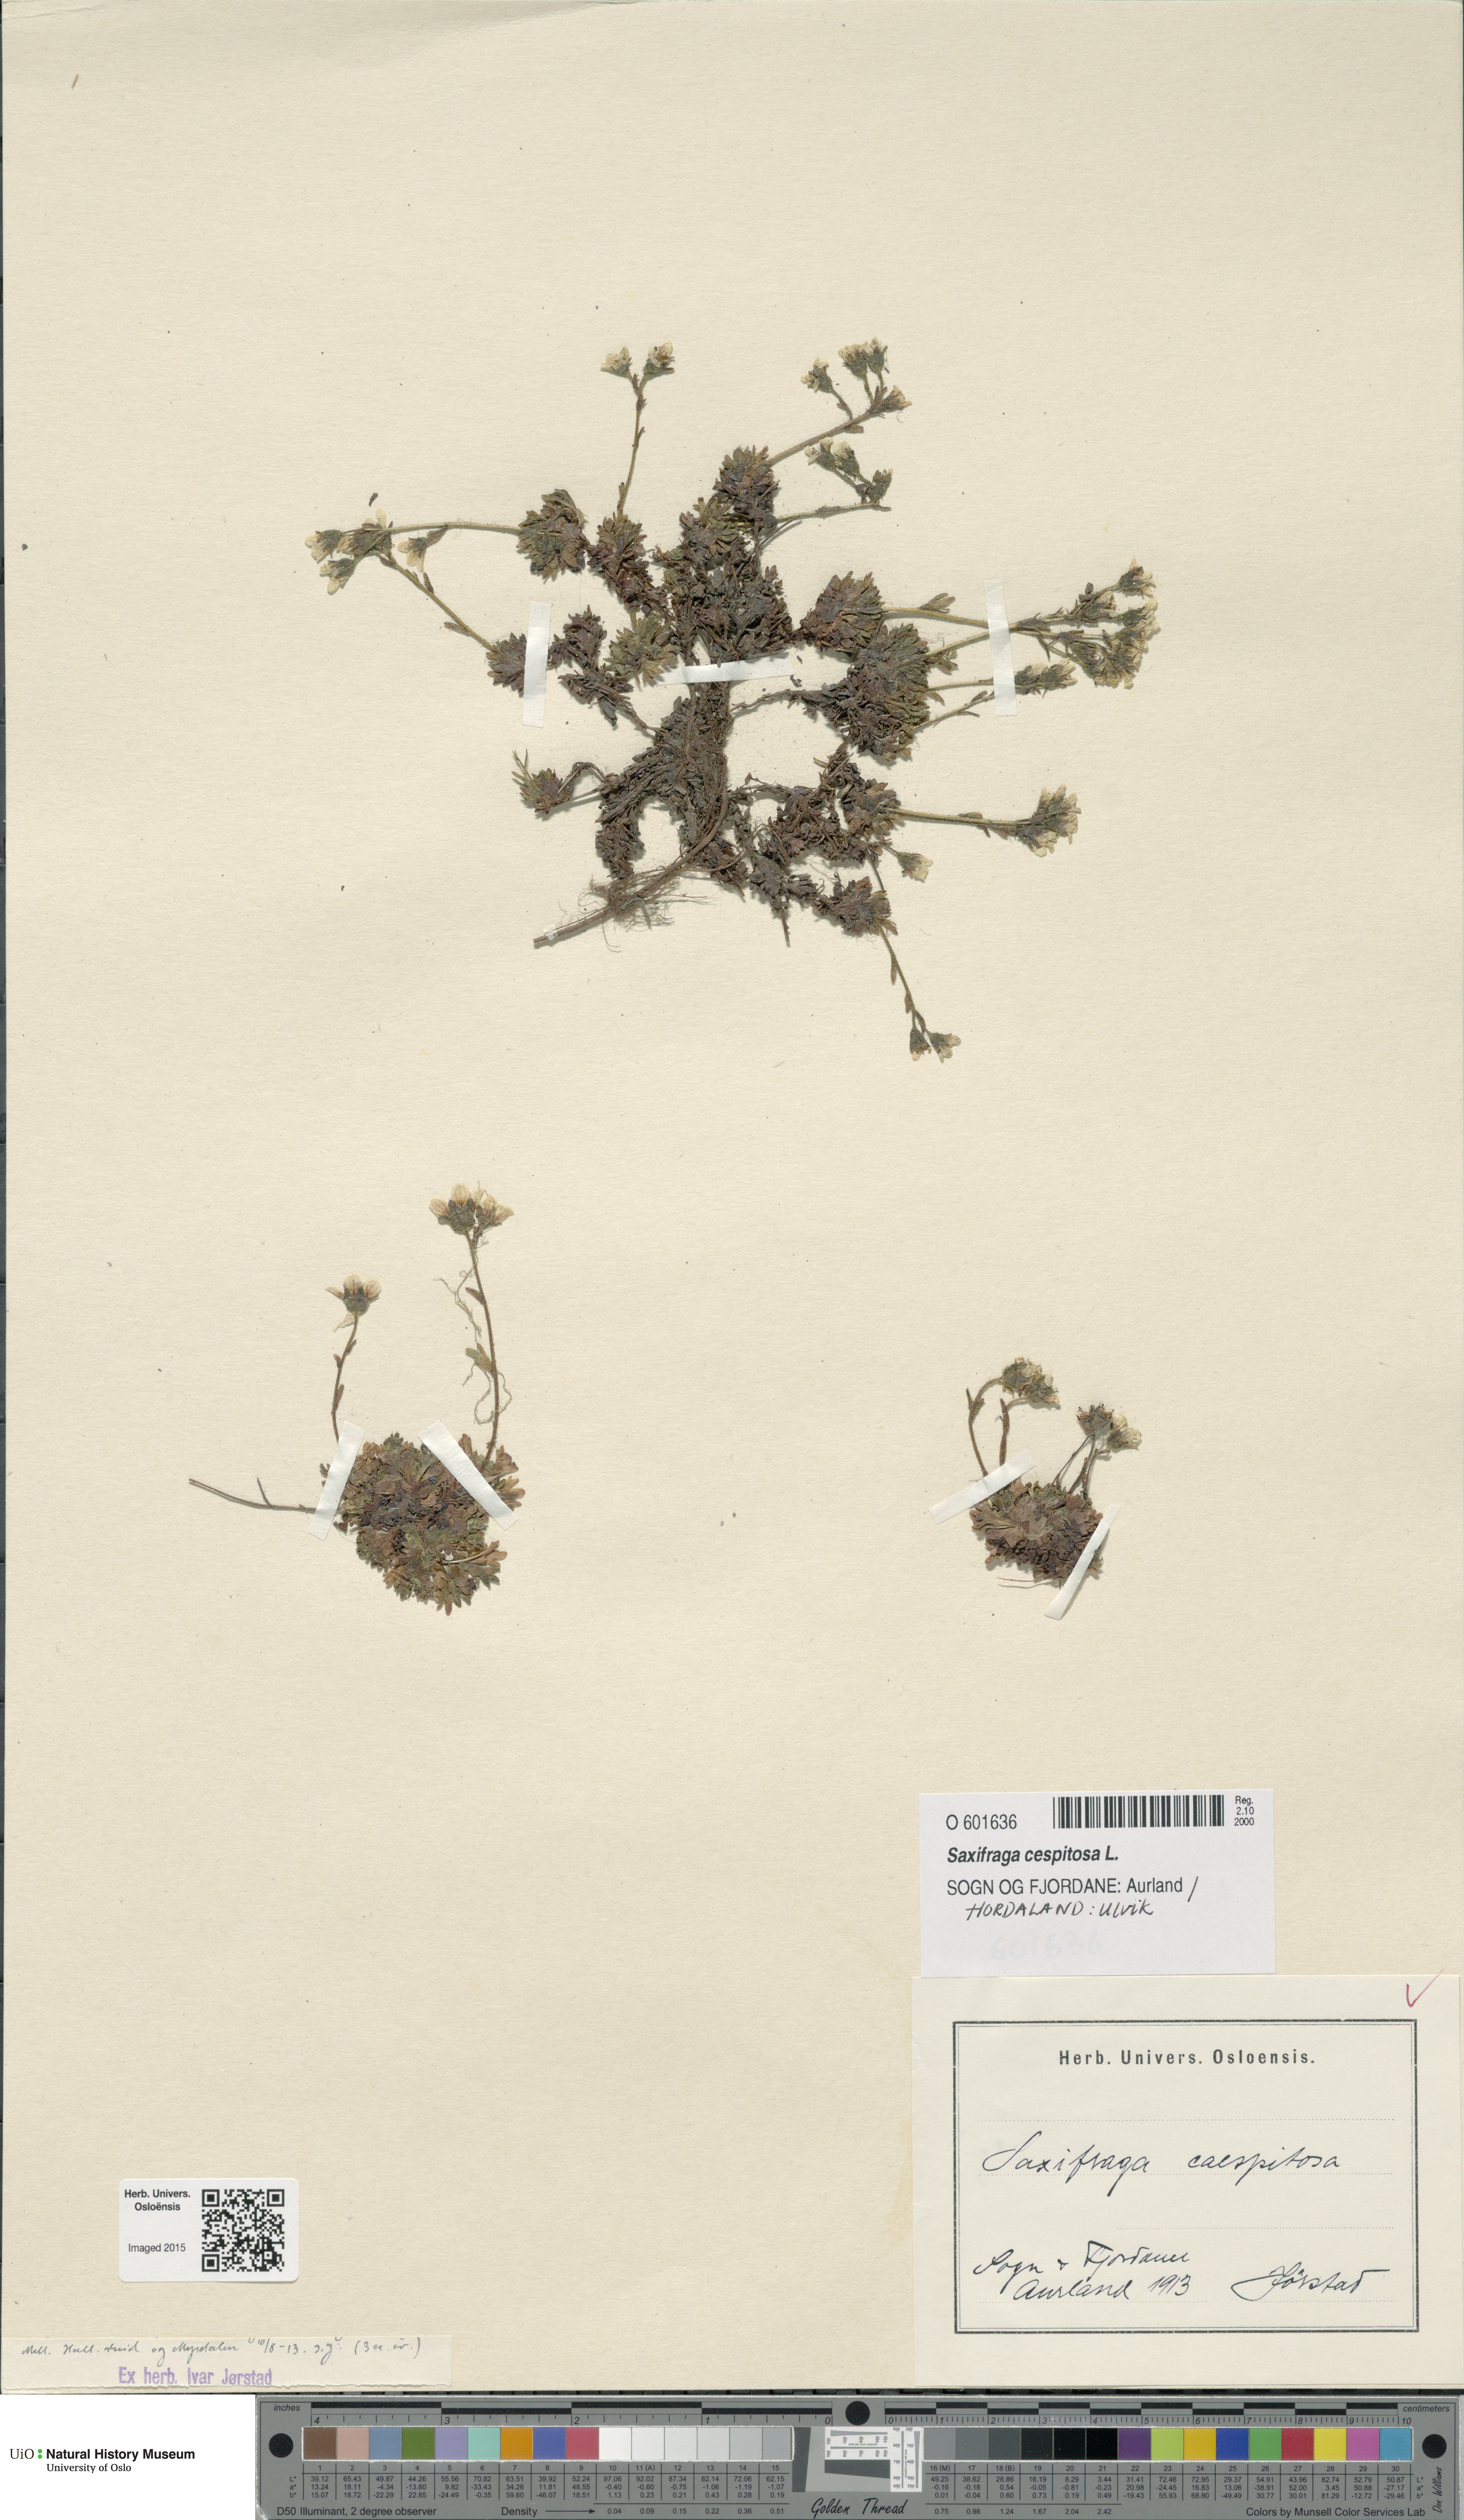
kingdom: Plantae
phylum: Tracheophyta
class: Magnoliopsida
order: Saxifragales
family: Saxifragaceae
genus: Saxifraga
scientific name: Saxifraga cespitosa
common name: Tufted saxifrage
